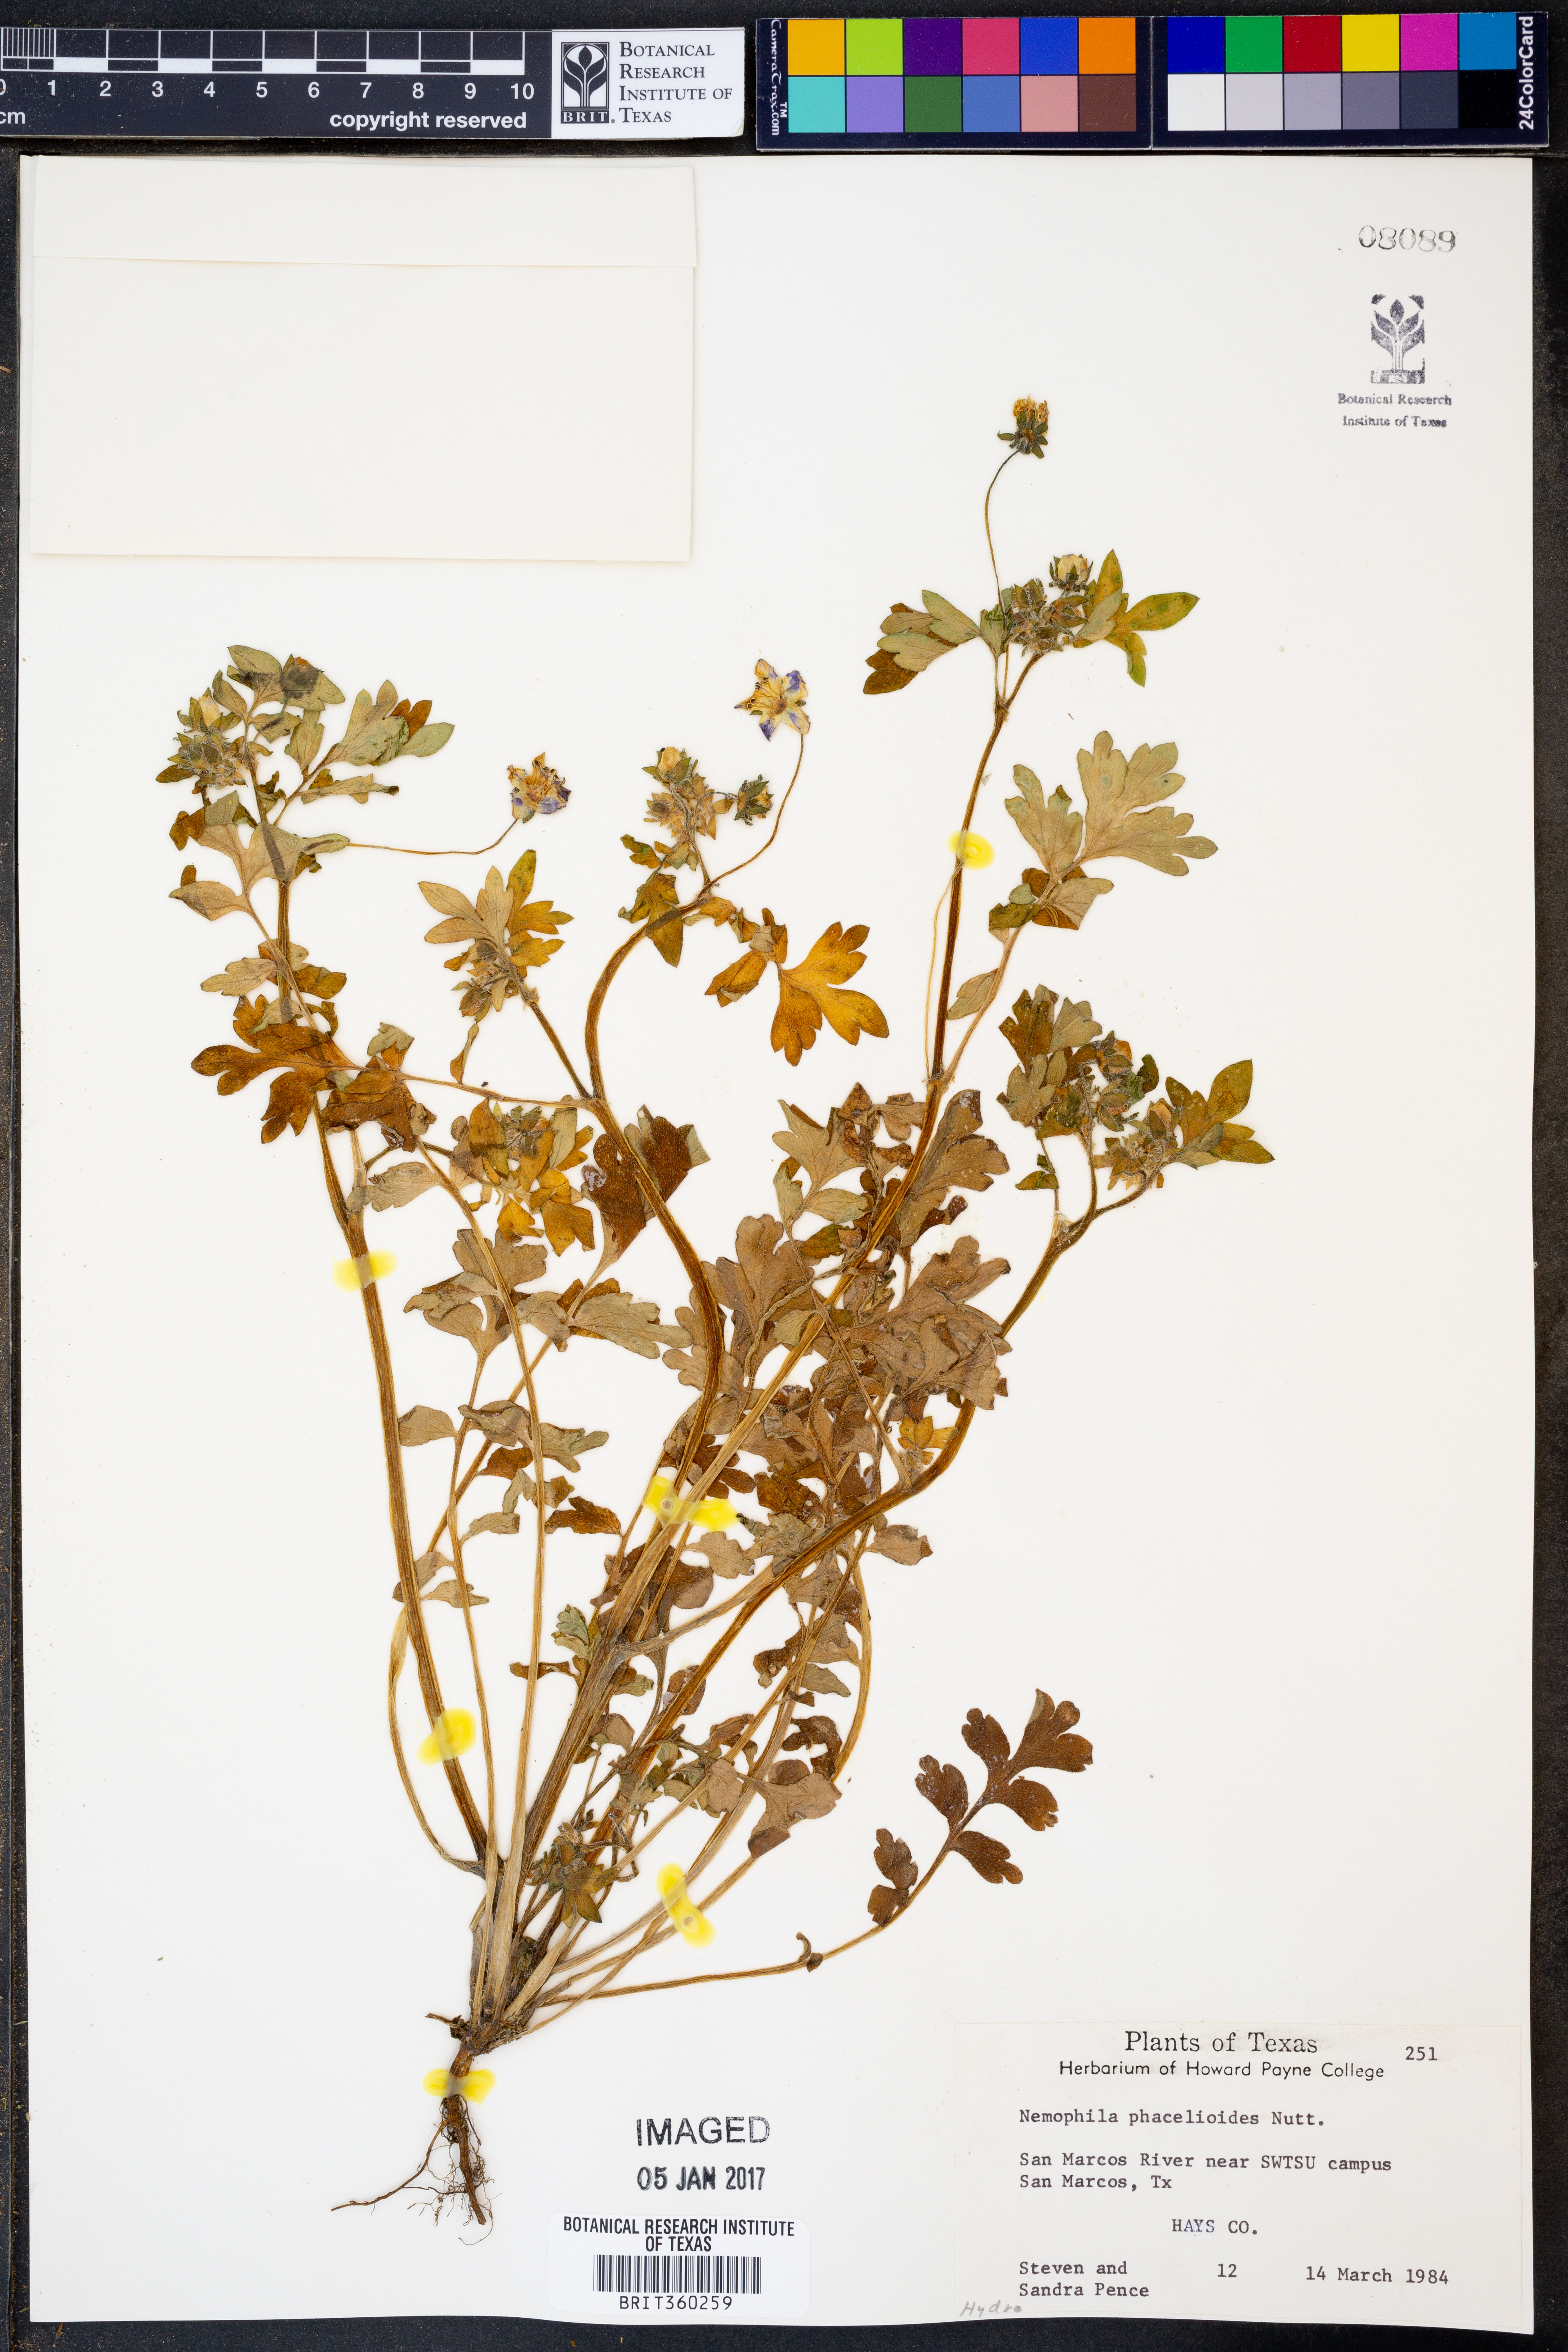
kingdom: Plantae
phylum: Tracheophyta
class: Magnoliopsida
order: Boraginales
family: Hydrophyllaceae
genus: Nemophila
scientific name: Nemophila phacelioides
